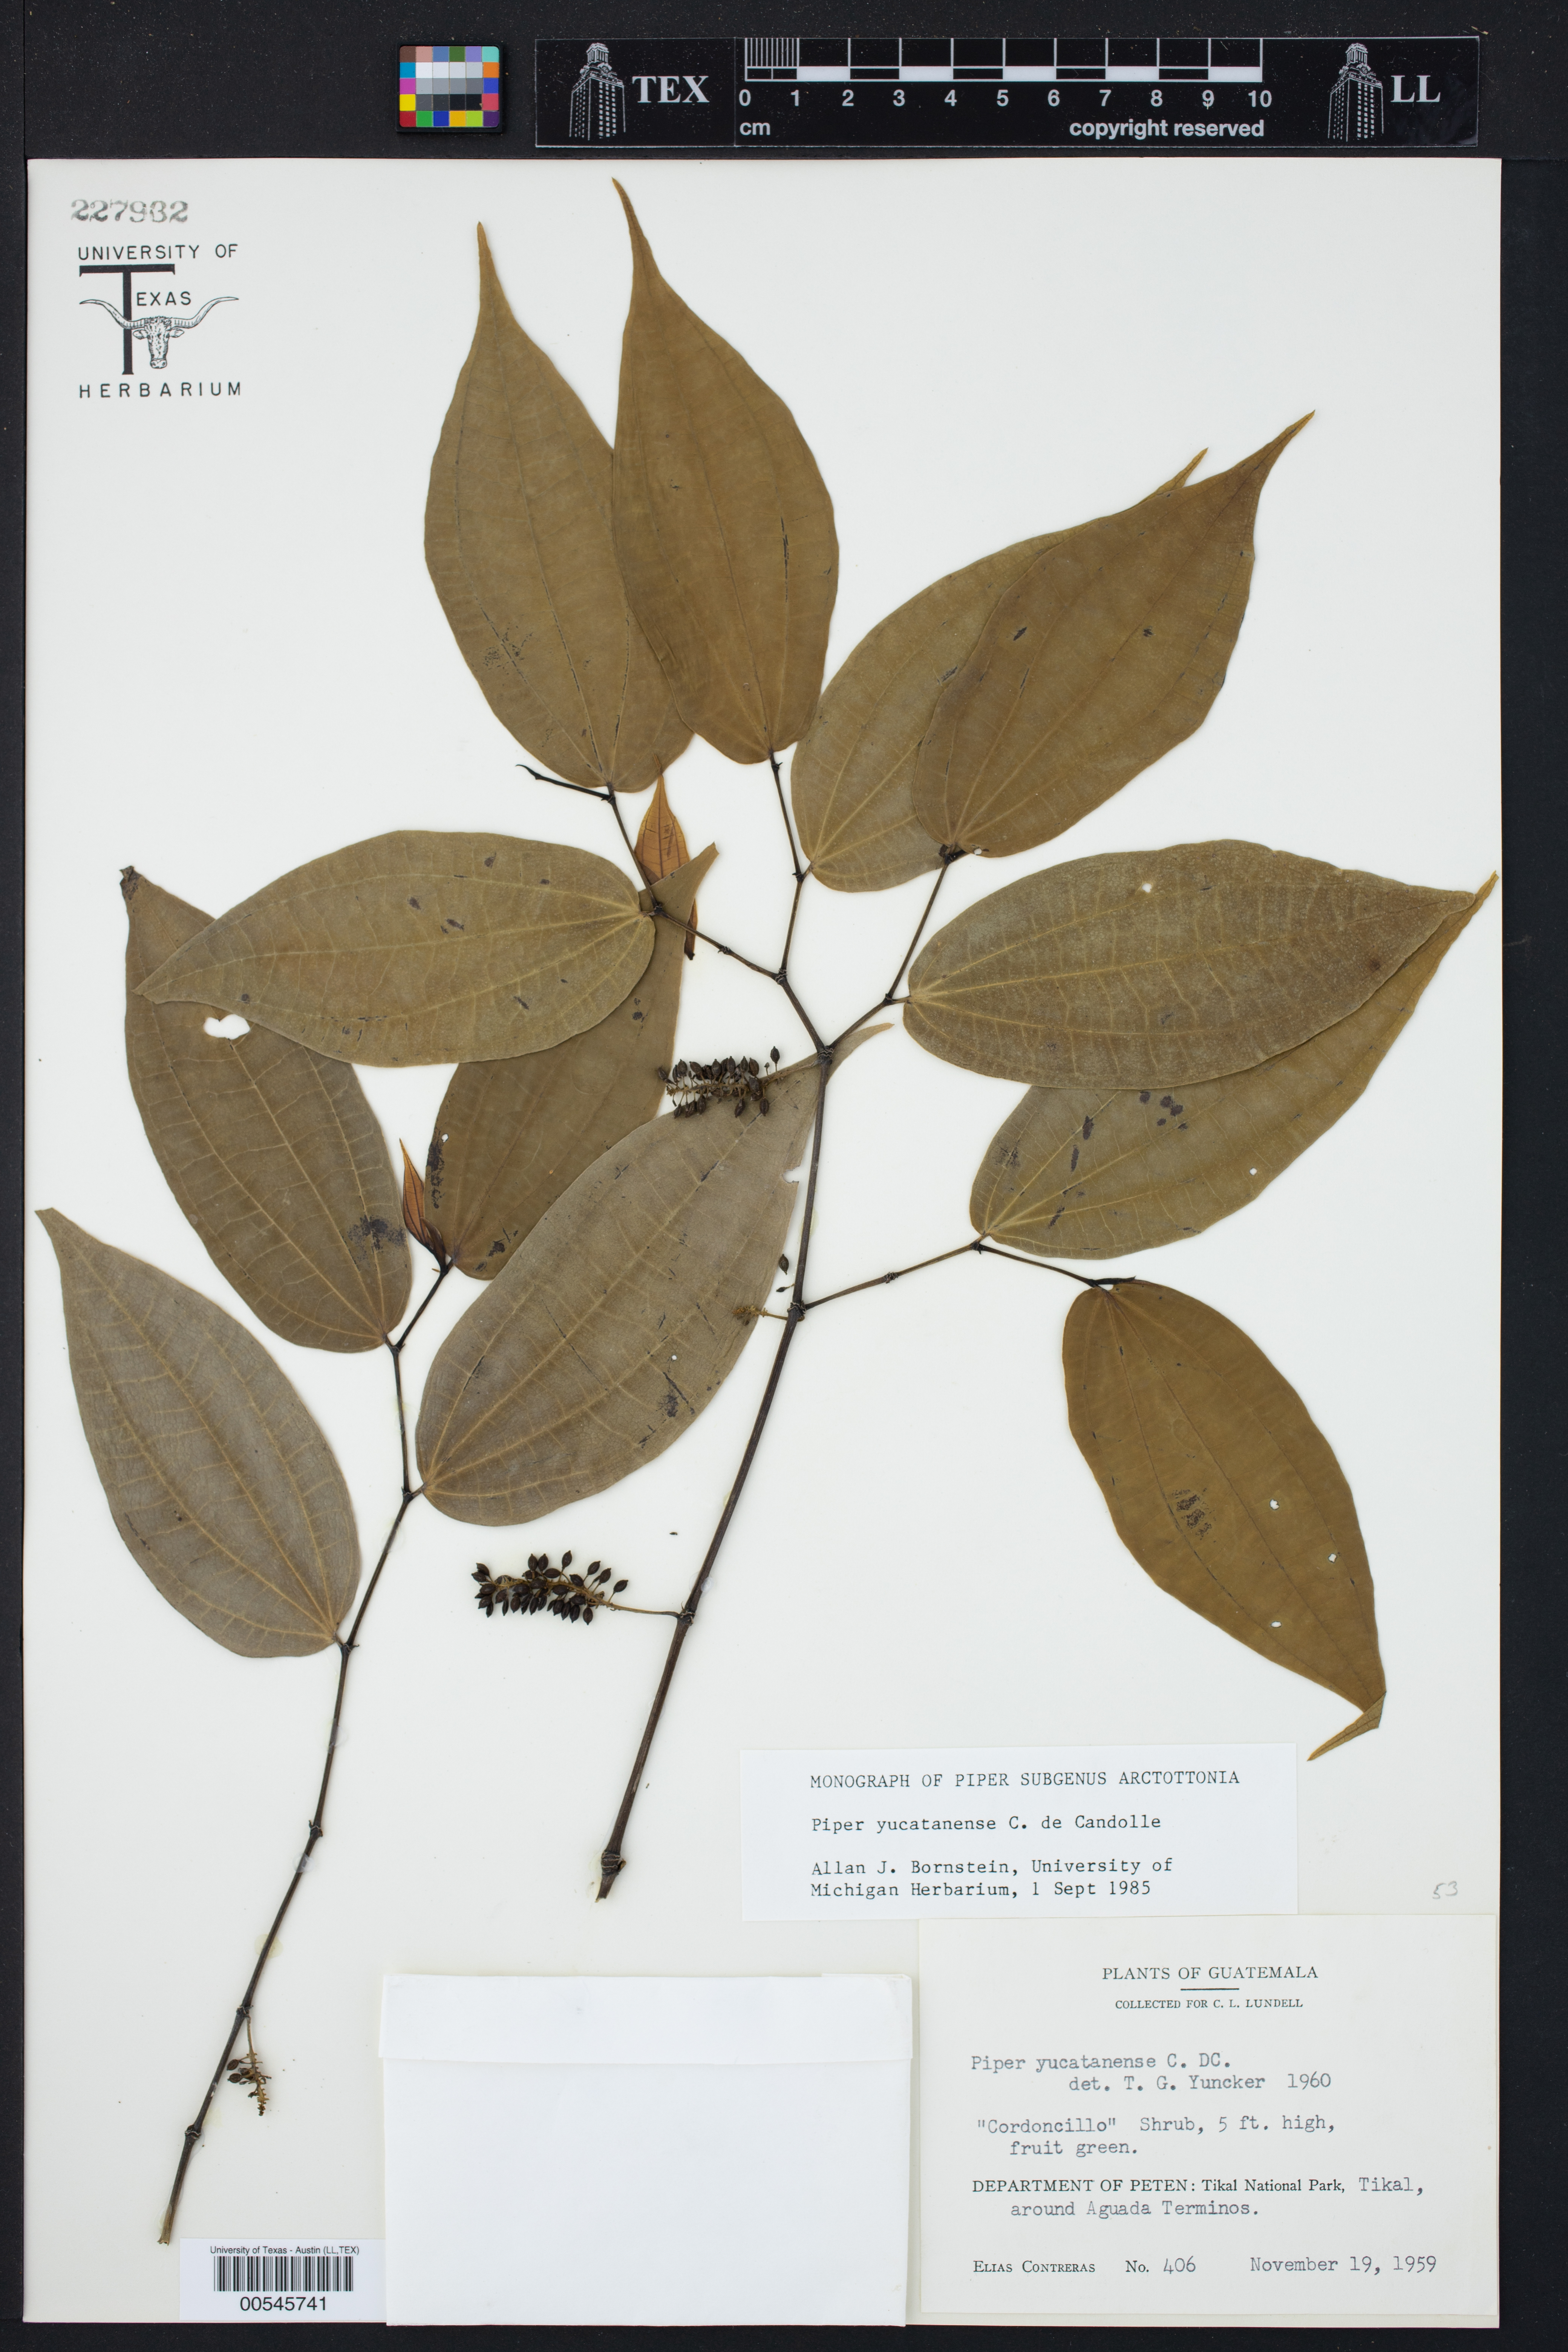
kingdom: Plantae
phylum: Tracheophyta
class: Magnoliopsida
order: Piperales
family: Piperaceae
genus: Piper
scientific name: Piper yucatanense
